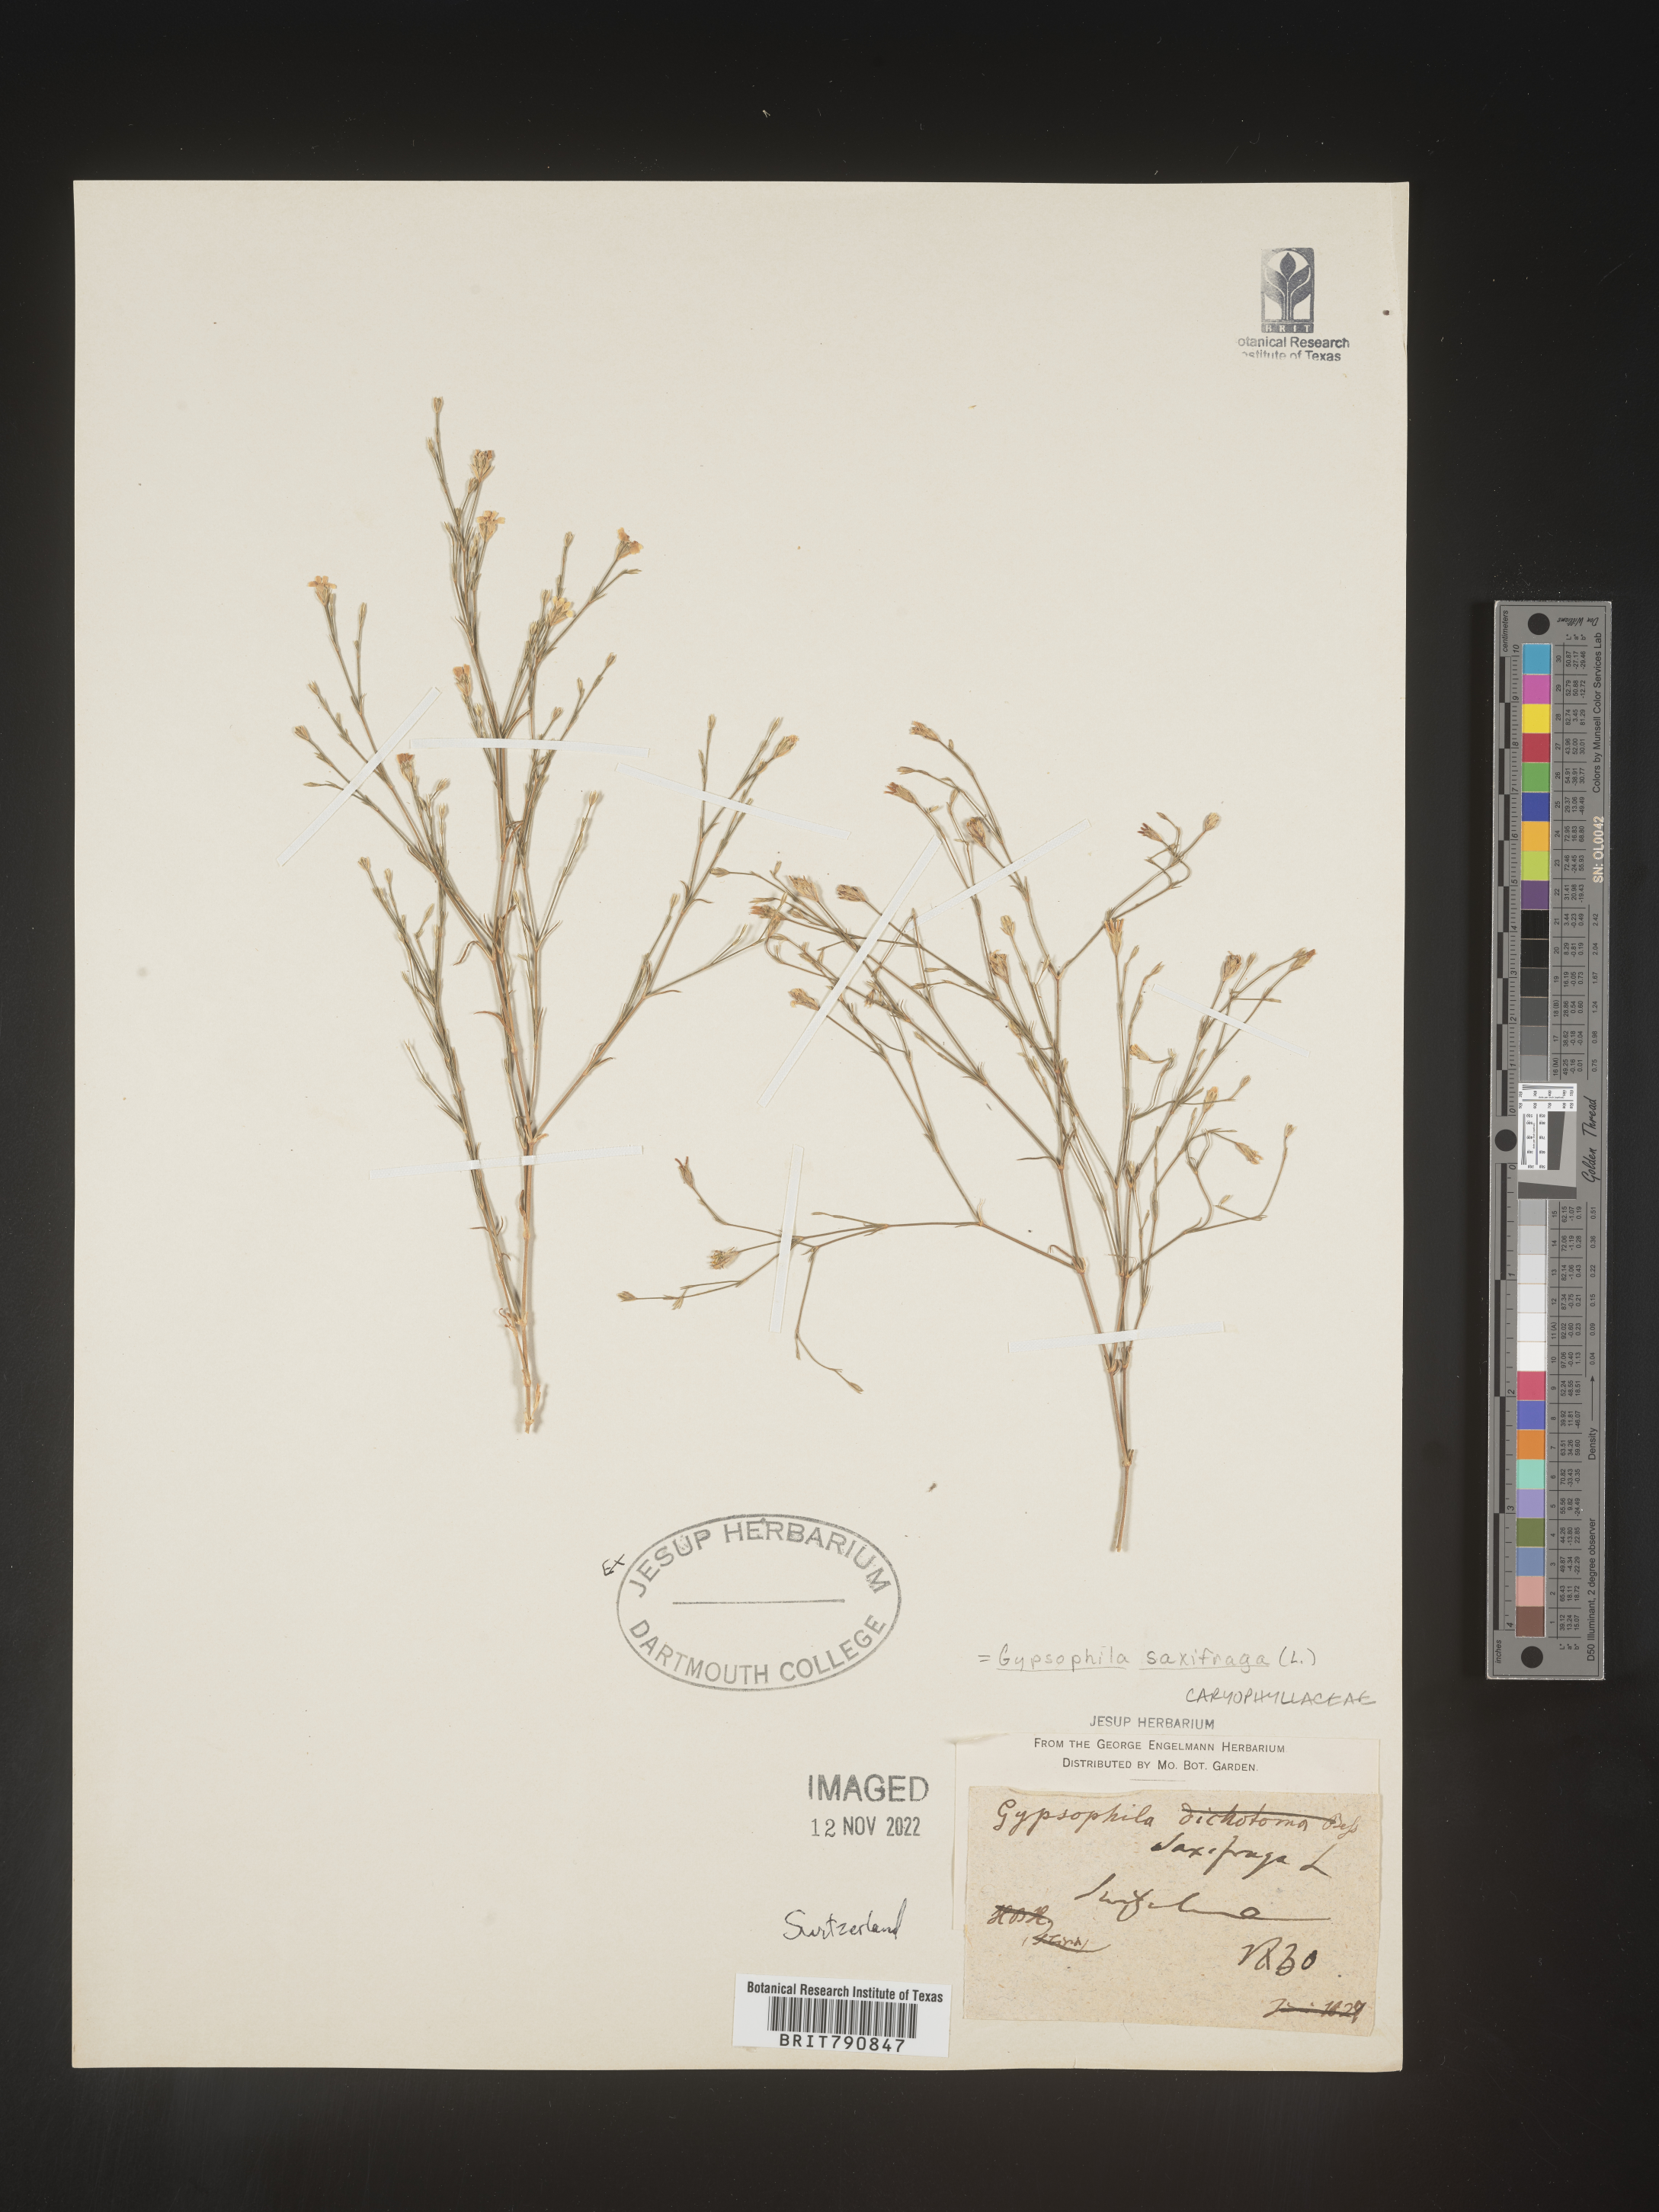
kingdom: Plantae
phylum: Tracheophyta
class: Magnoliopsida
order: Caryophyllales
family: Caryophyllaceae
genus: Gypsophila
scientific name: Gypsophila
